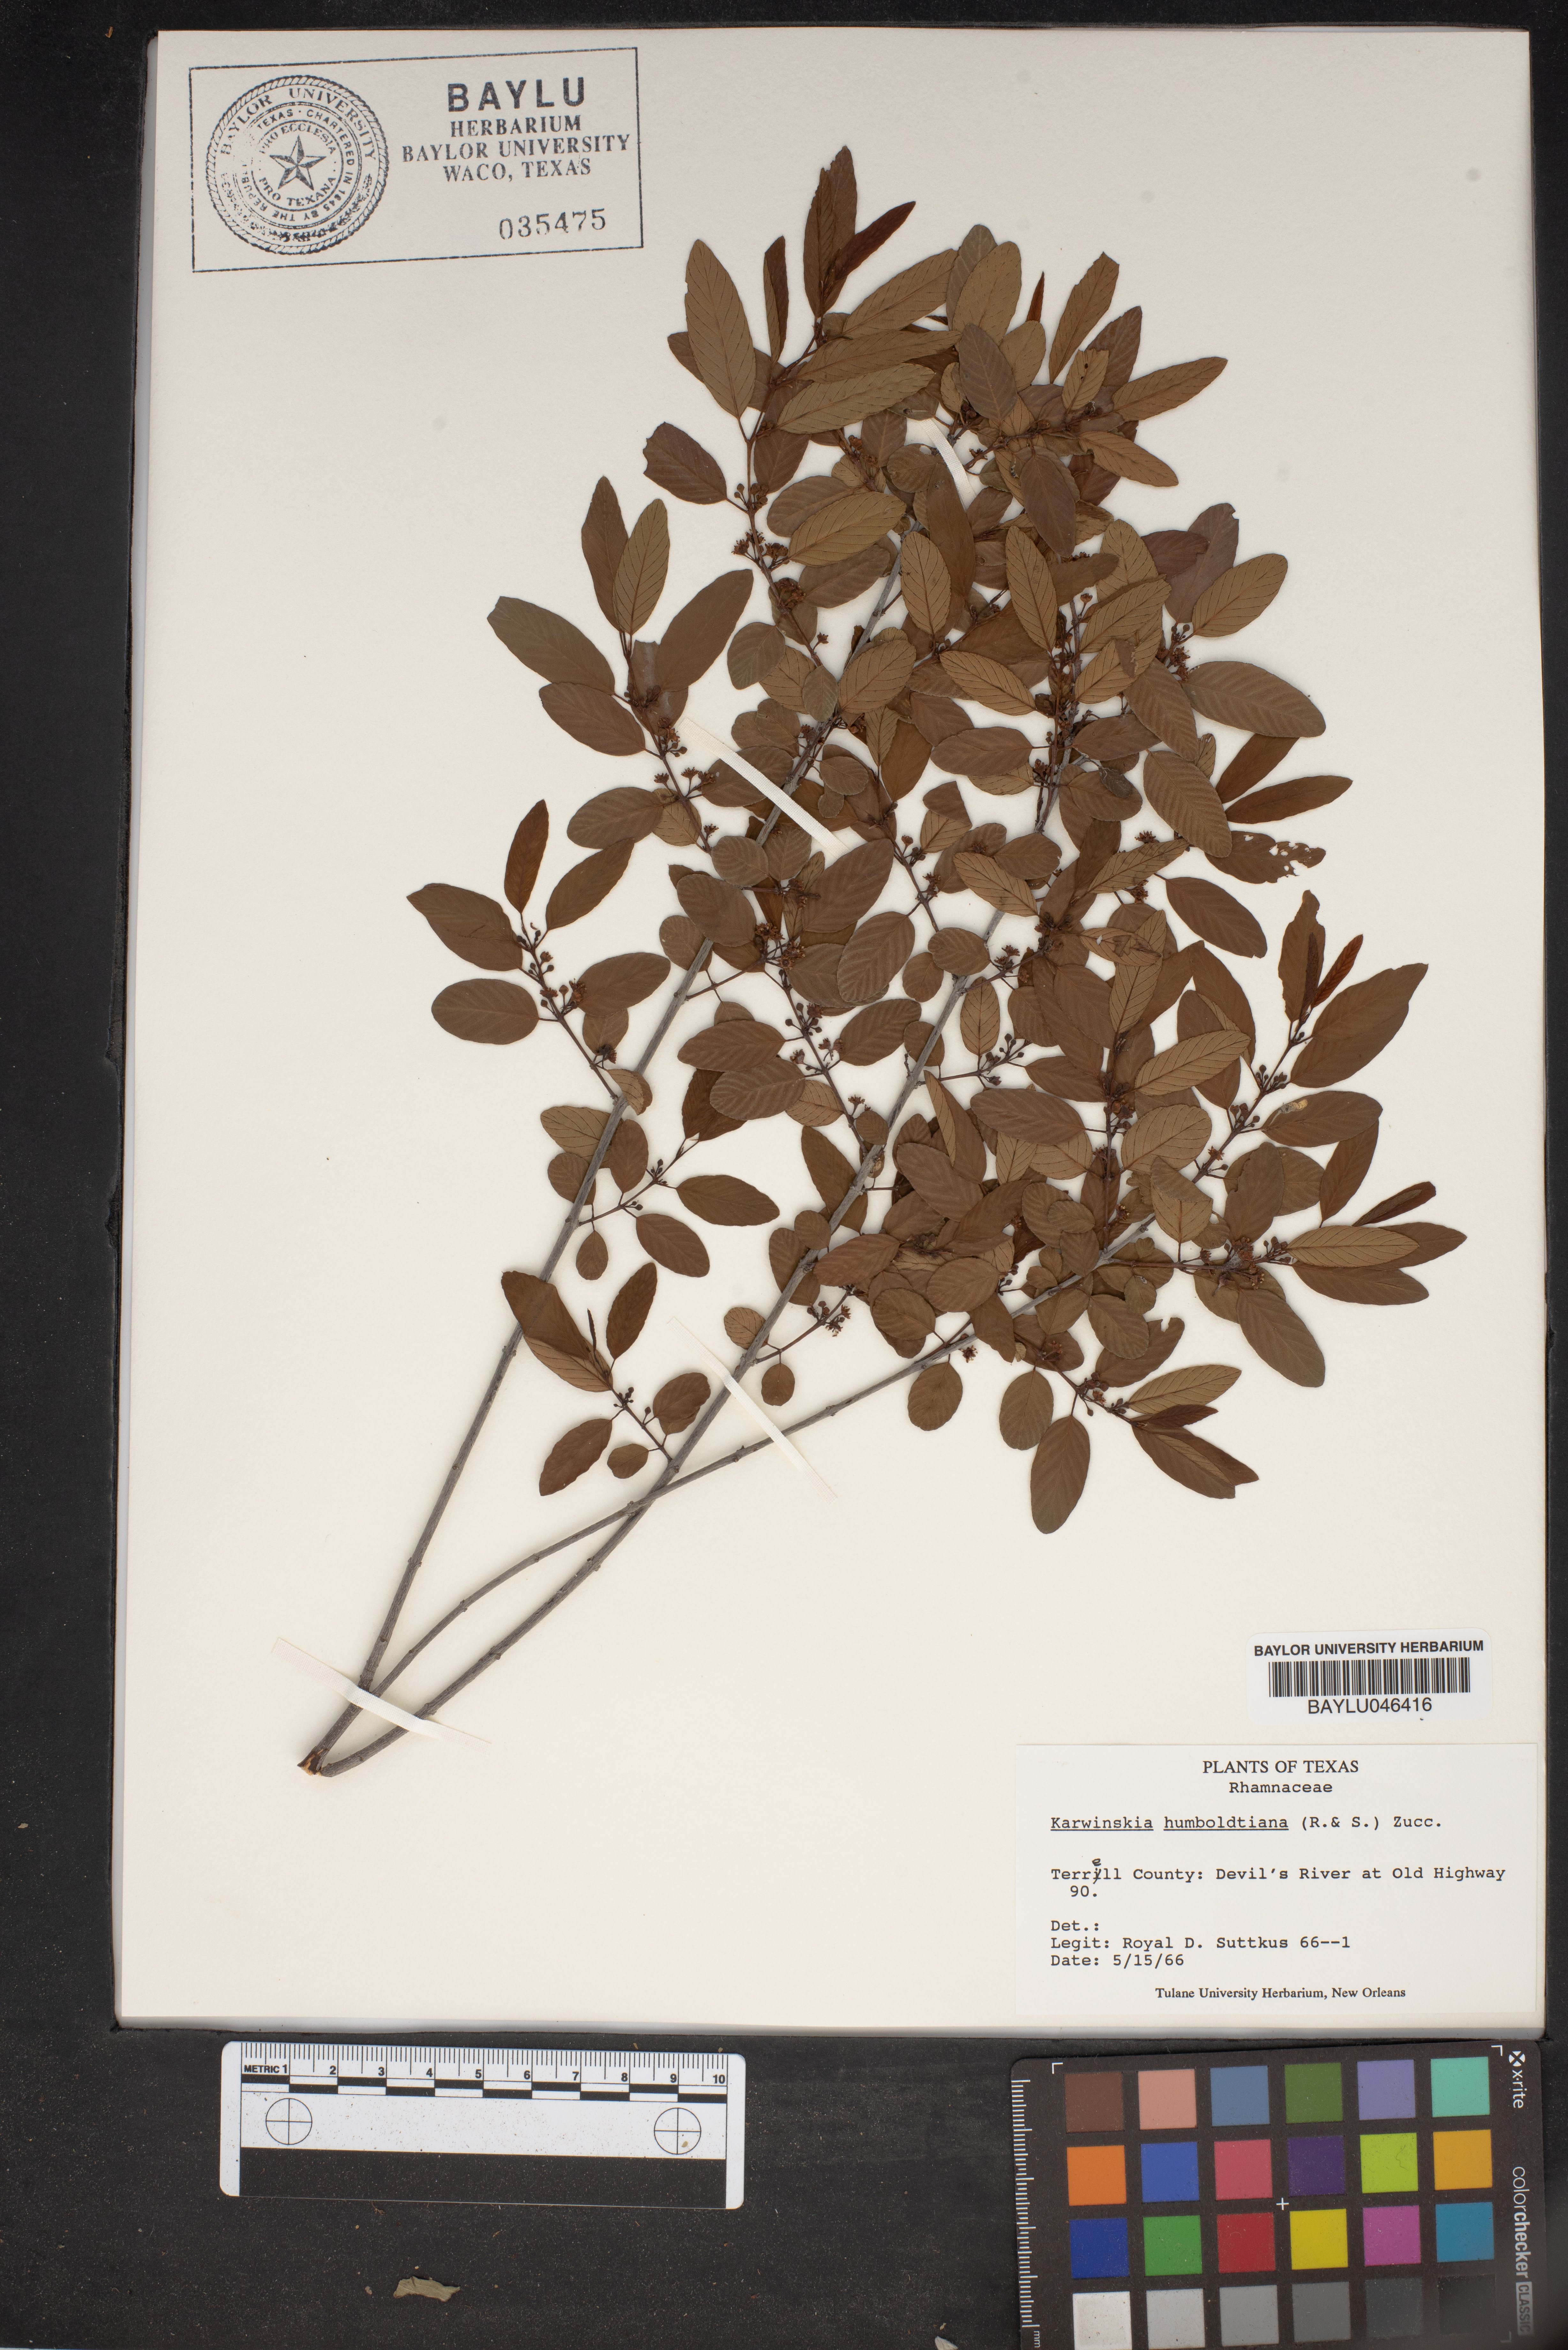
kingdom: Plantae
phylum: Tracheophyta
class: Magnoliopsida
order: Rosales
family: Rhamnaceae
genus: Karwinskia
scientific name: Karwinskia humboldtiana
